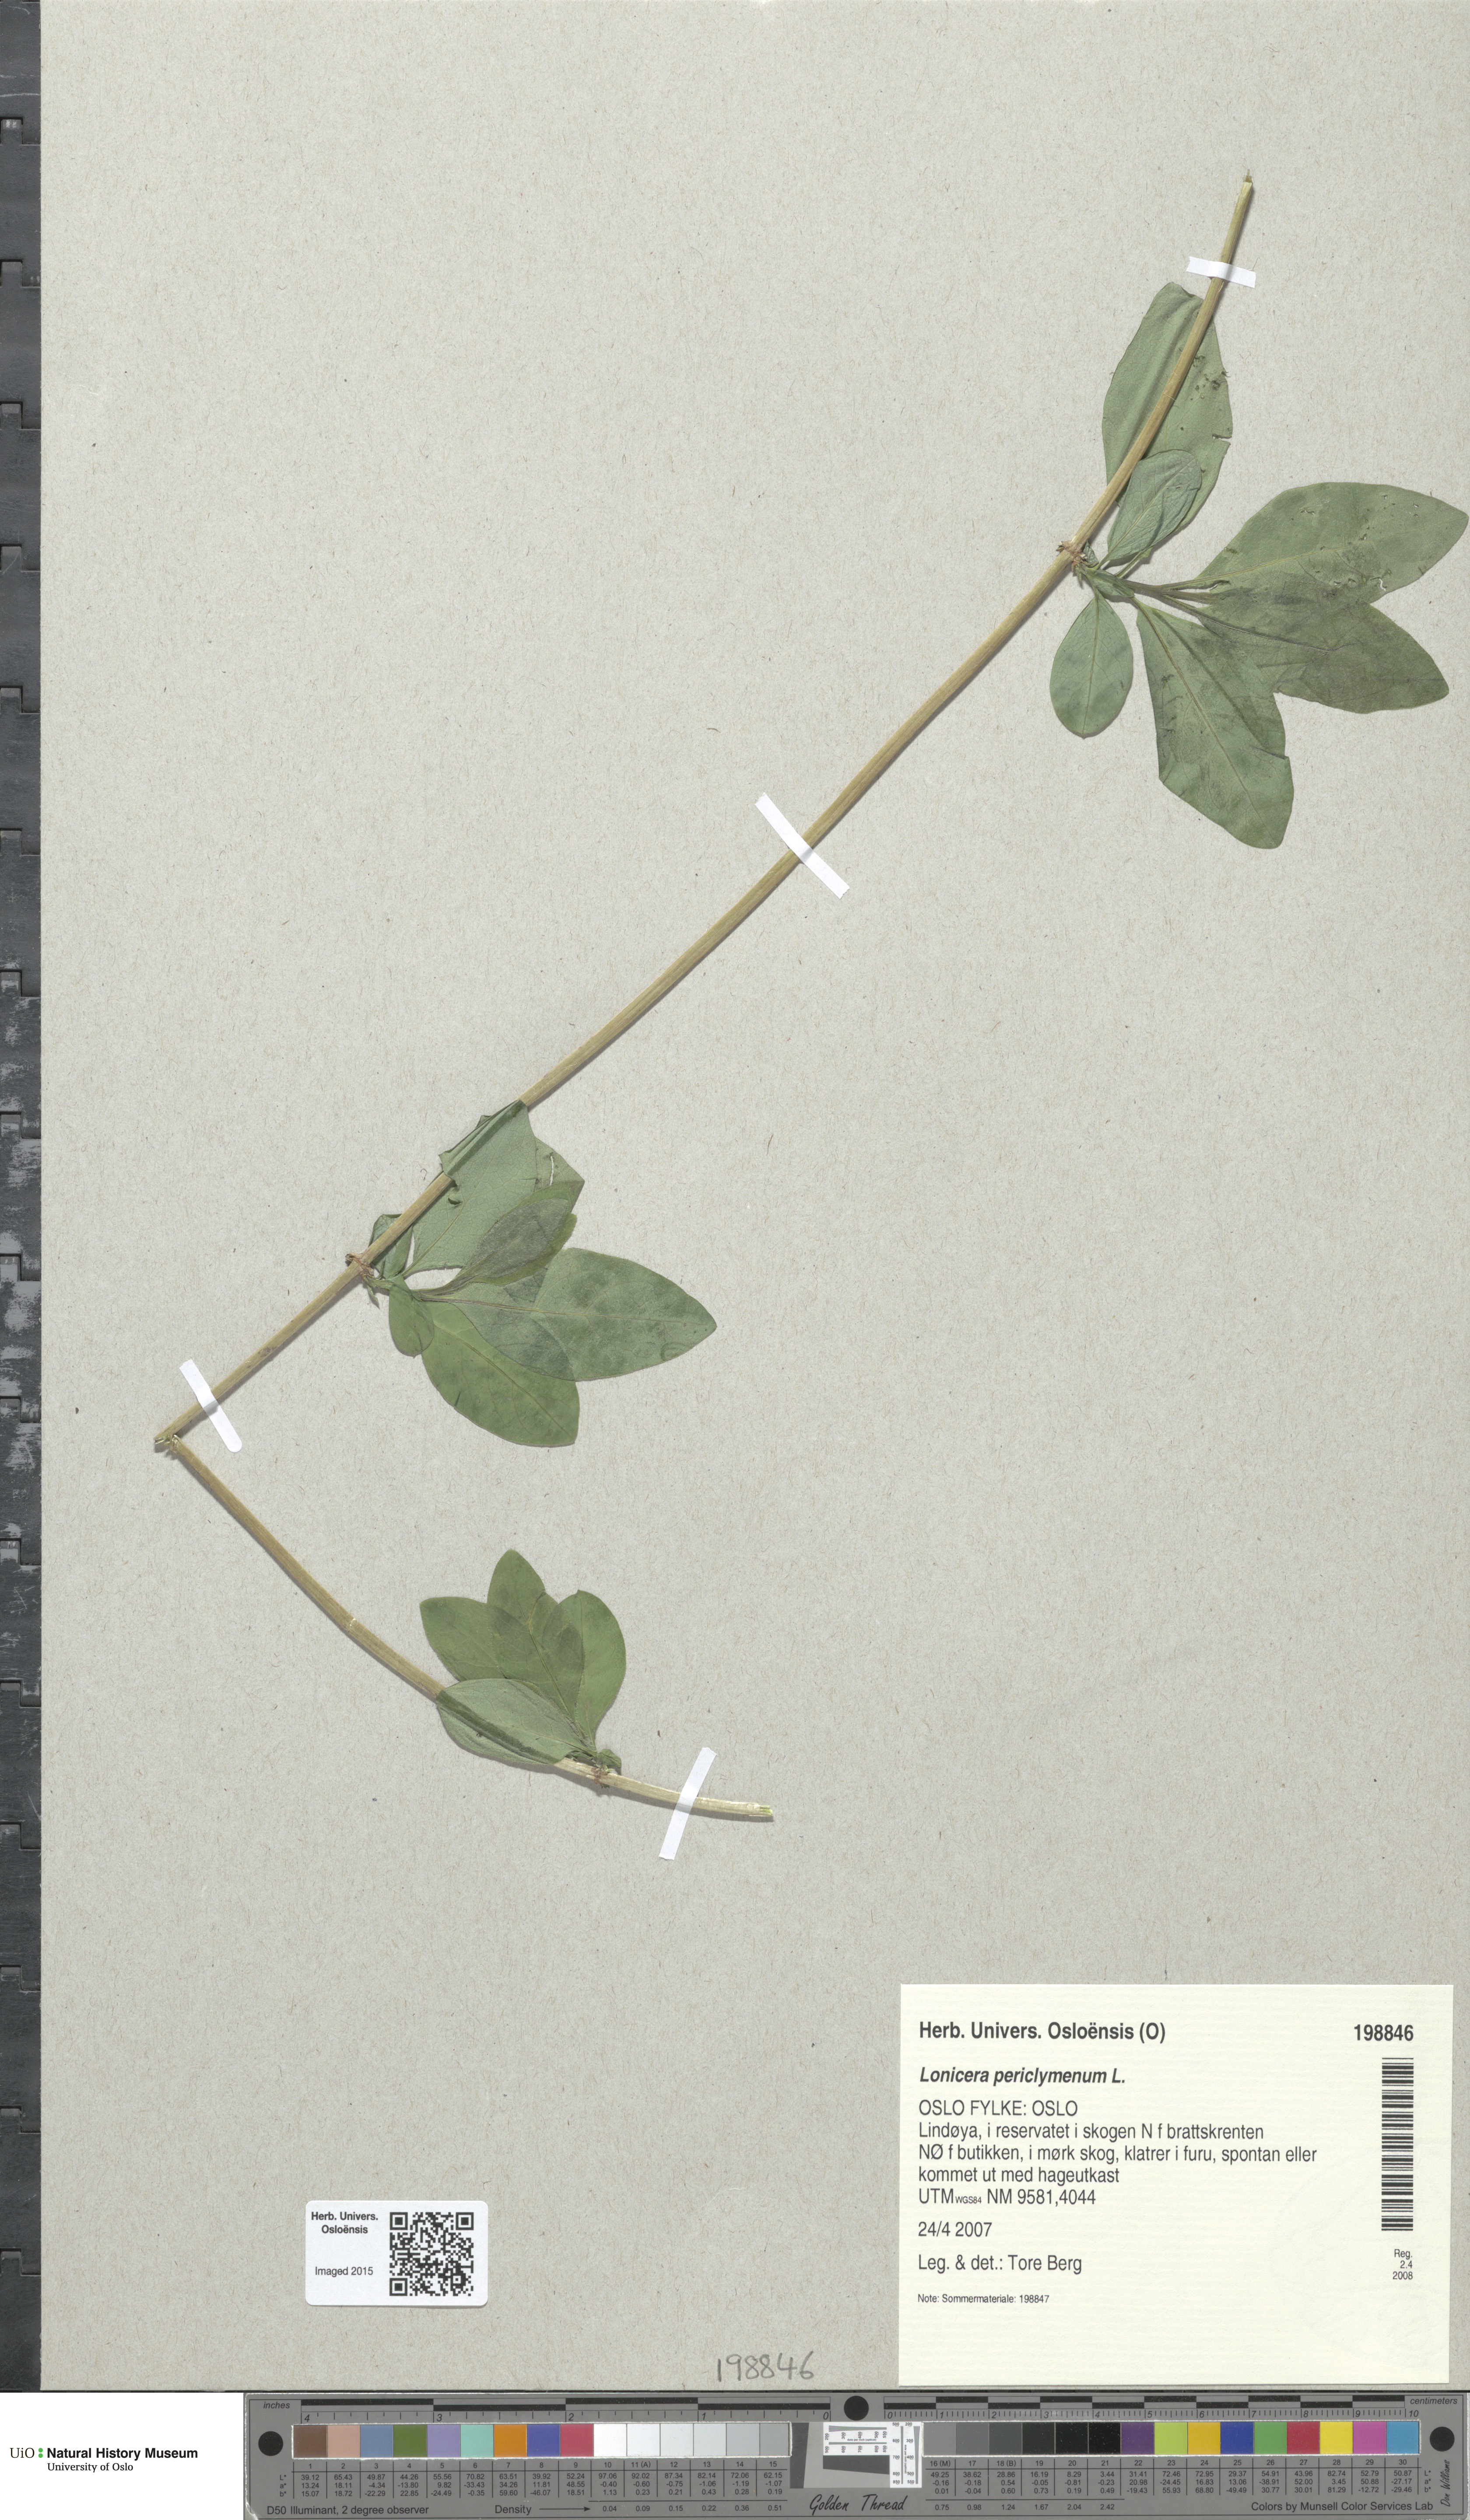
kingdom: Plantae
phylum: Tracheophyta
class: Magnoliopsida
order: Dipsacales
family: Caprifoliaceae
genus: Lonicera
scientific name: Lonicera periclymenum
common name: European honeysuckle
